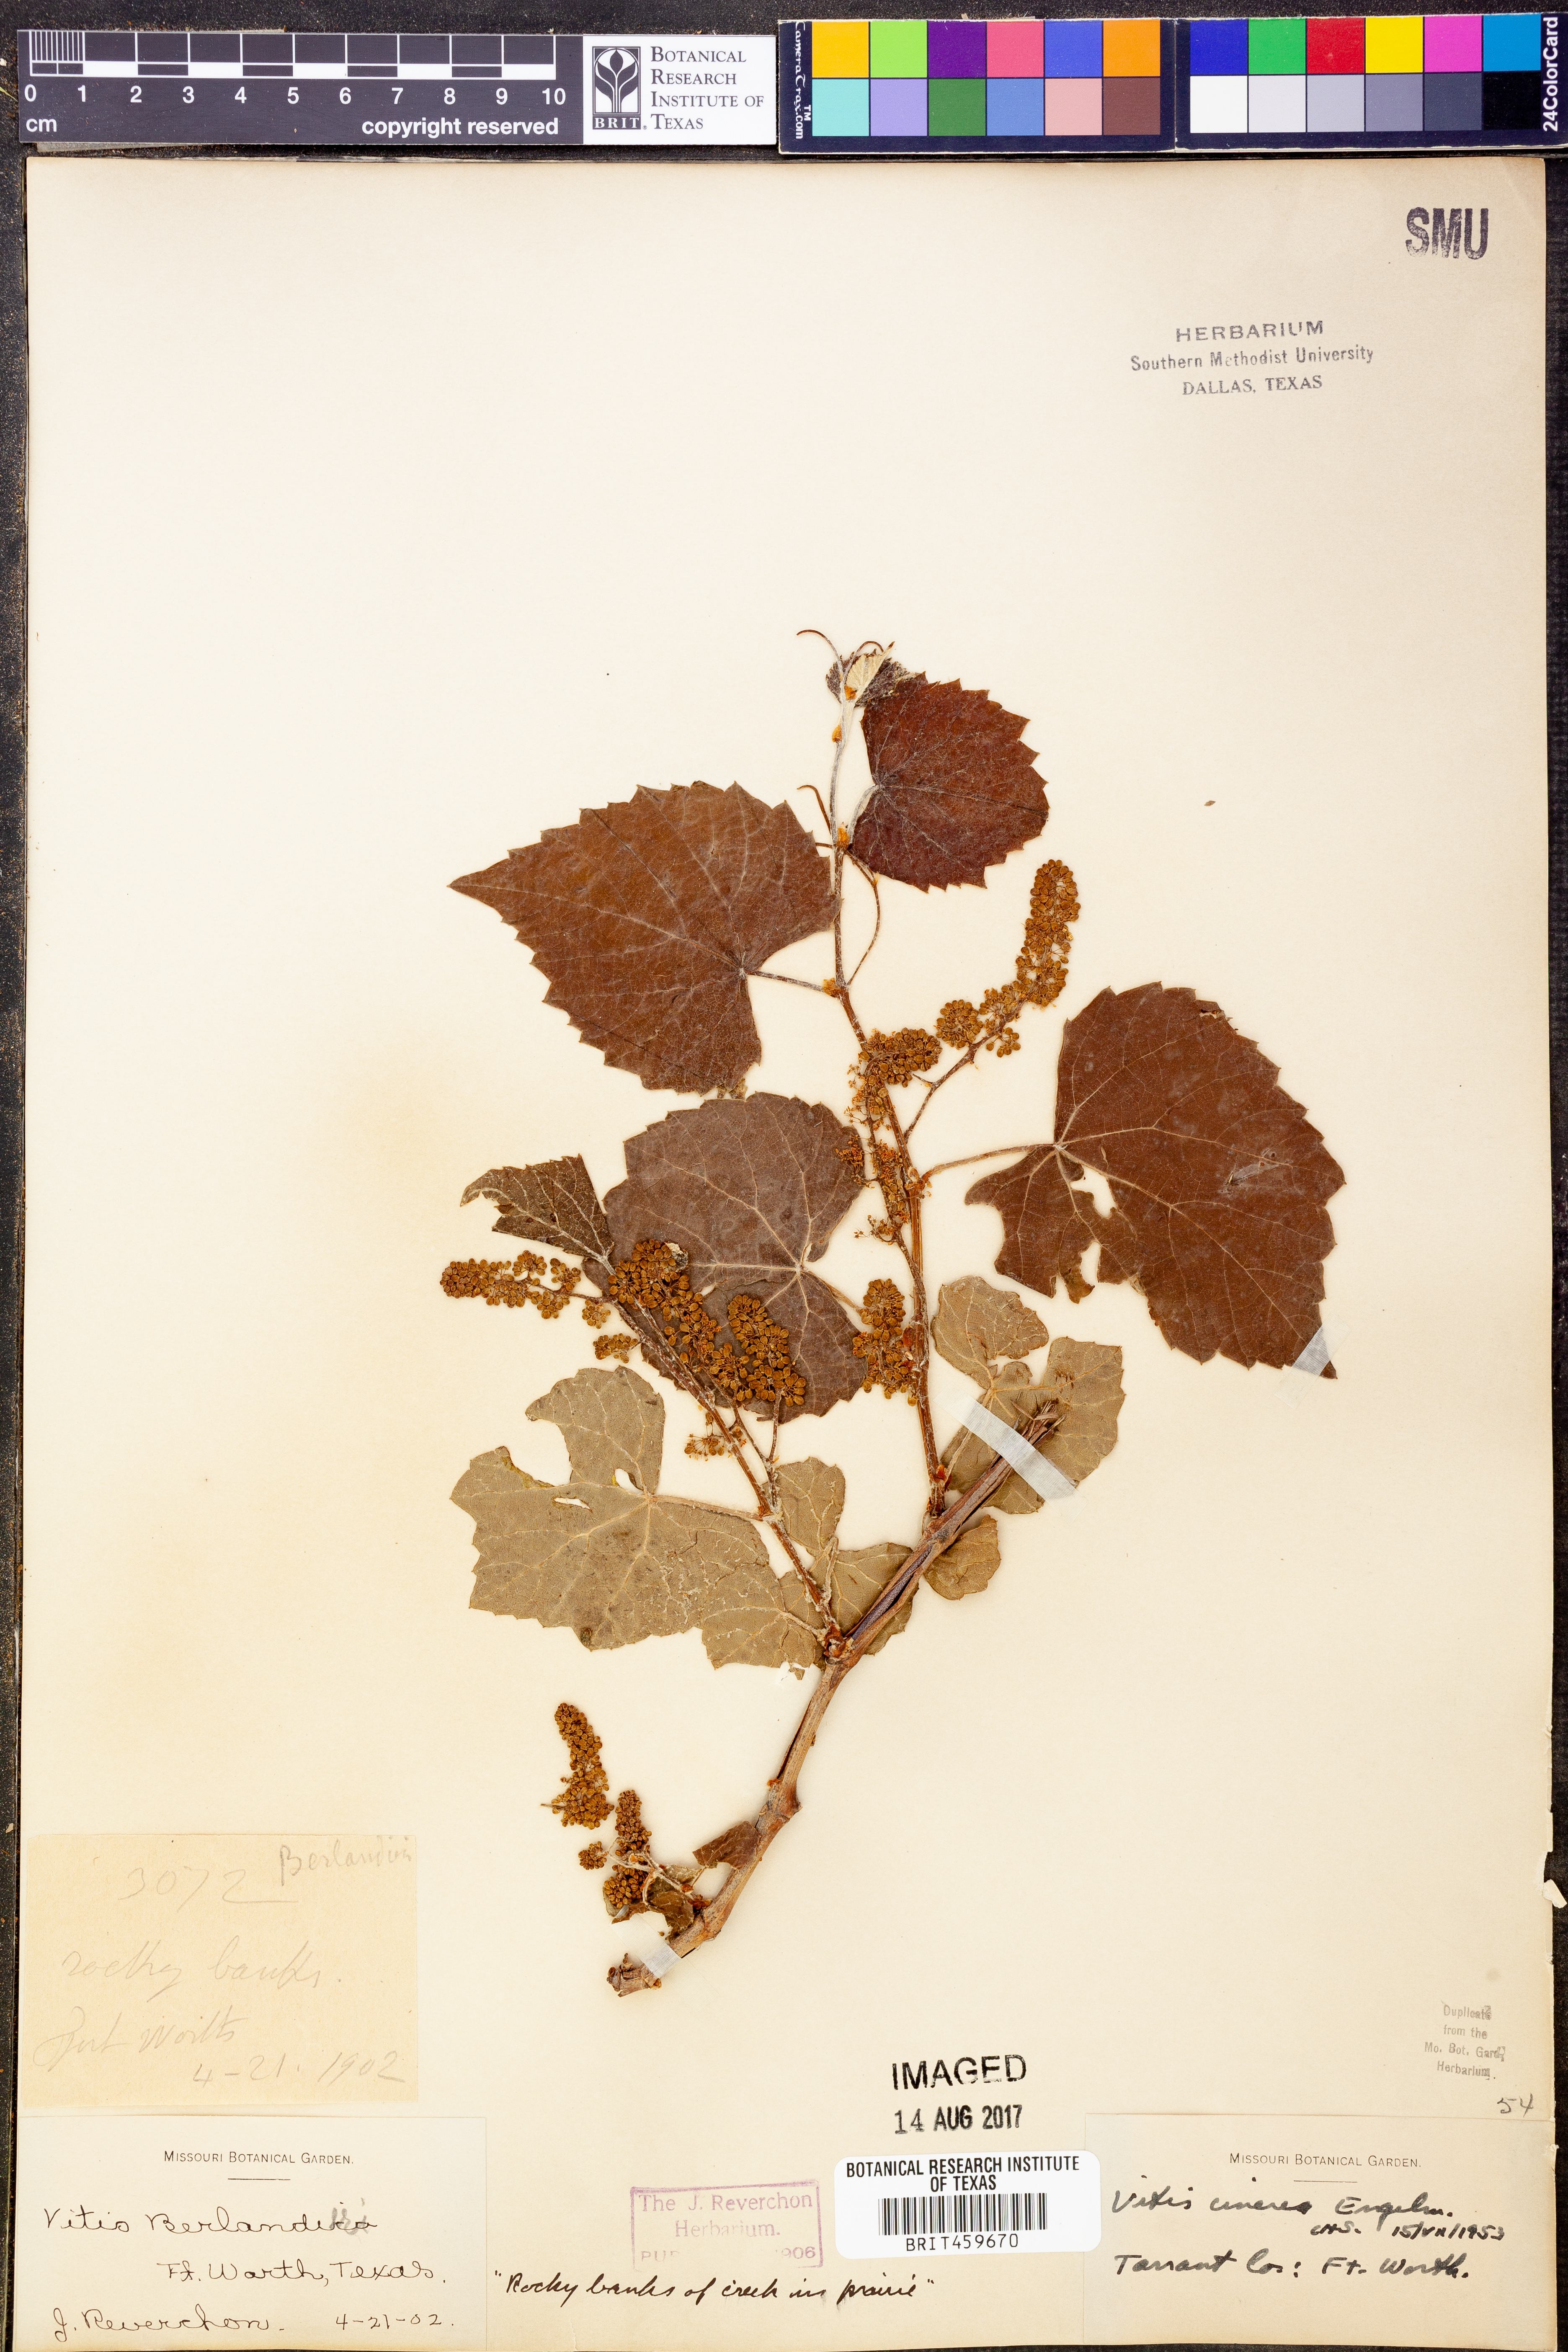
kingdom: Plantae
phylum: Tracheophyta
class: Magnoliopsida
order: Vitales
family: Vitaceae
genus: Vitis
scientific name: Vitis cinerea
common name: Ashy grape
